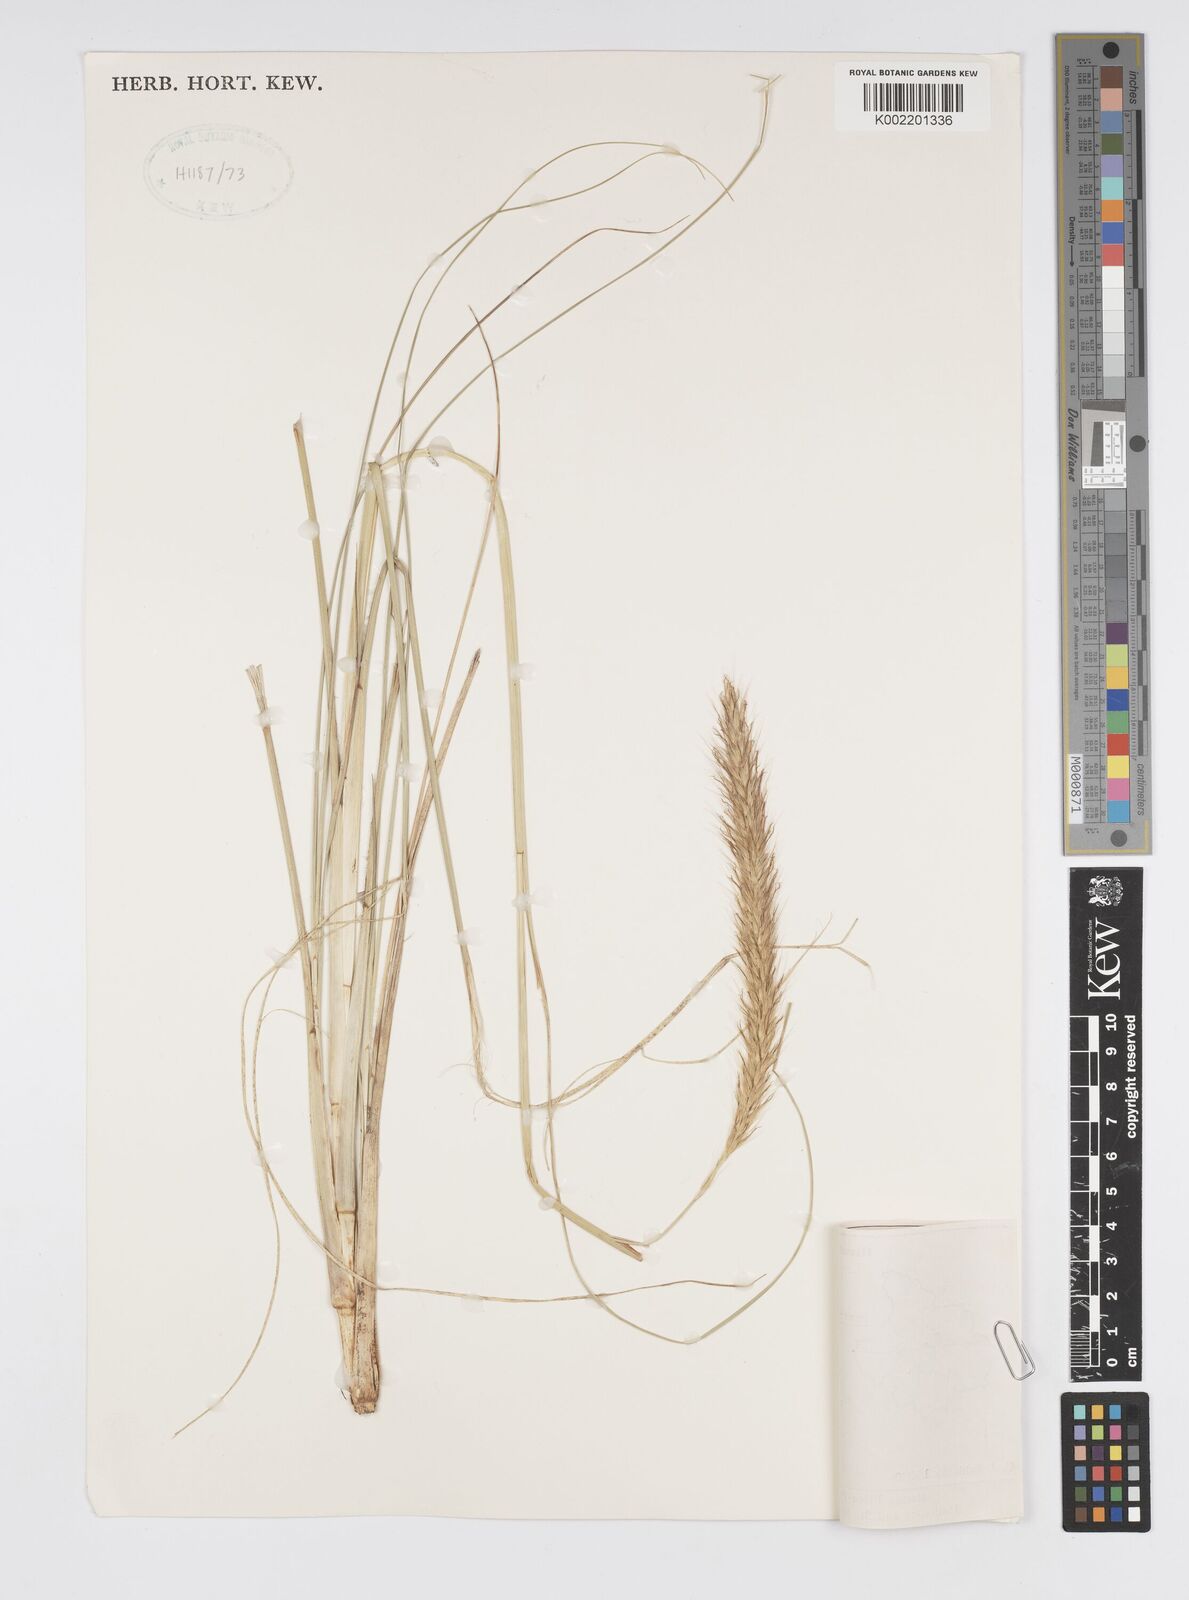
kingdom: Plantae
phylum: Tracheophyta
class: Liliopsida
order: Poales
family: Poaceae
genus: Cenchrus
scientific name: Cenchrus hohenackeri
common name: Moya grass
